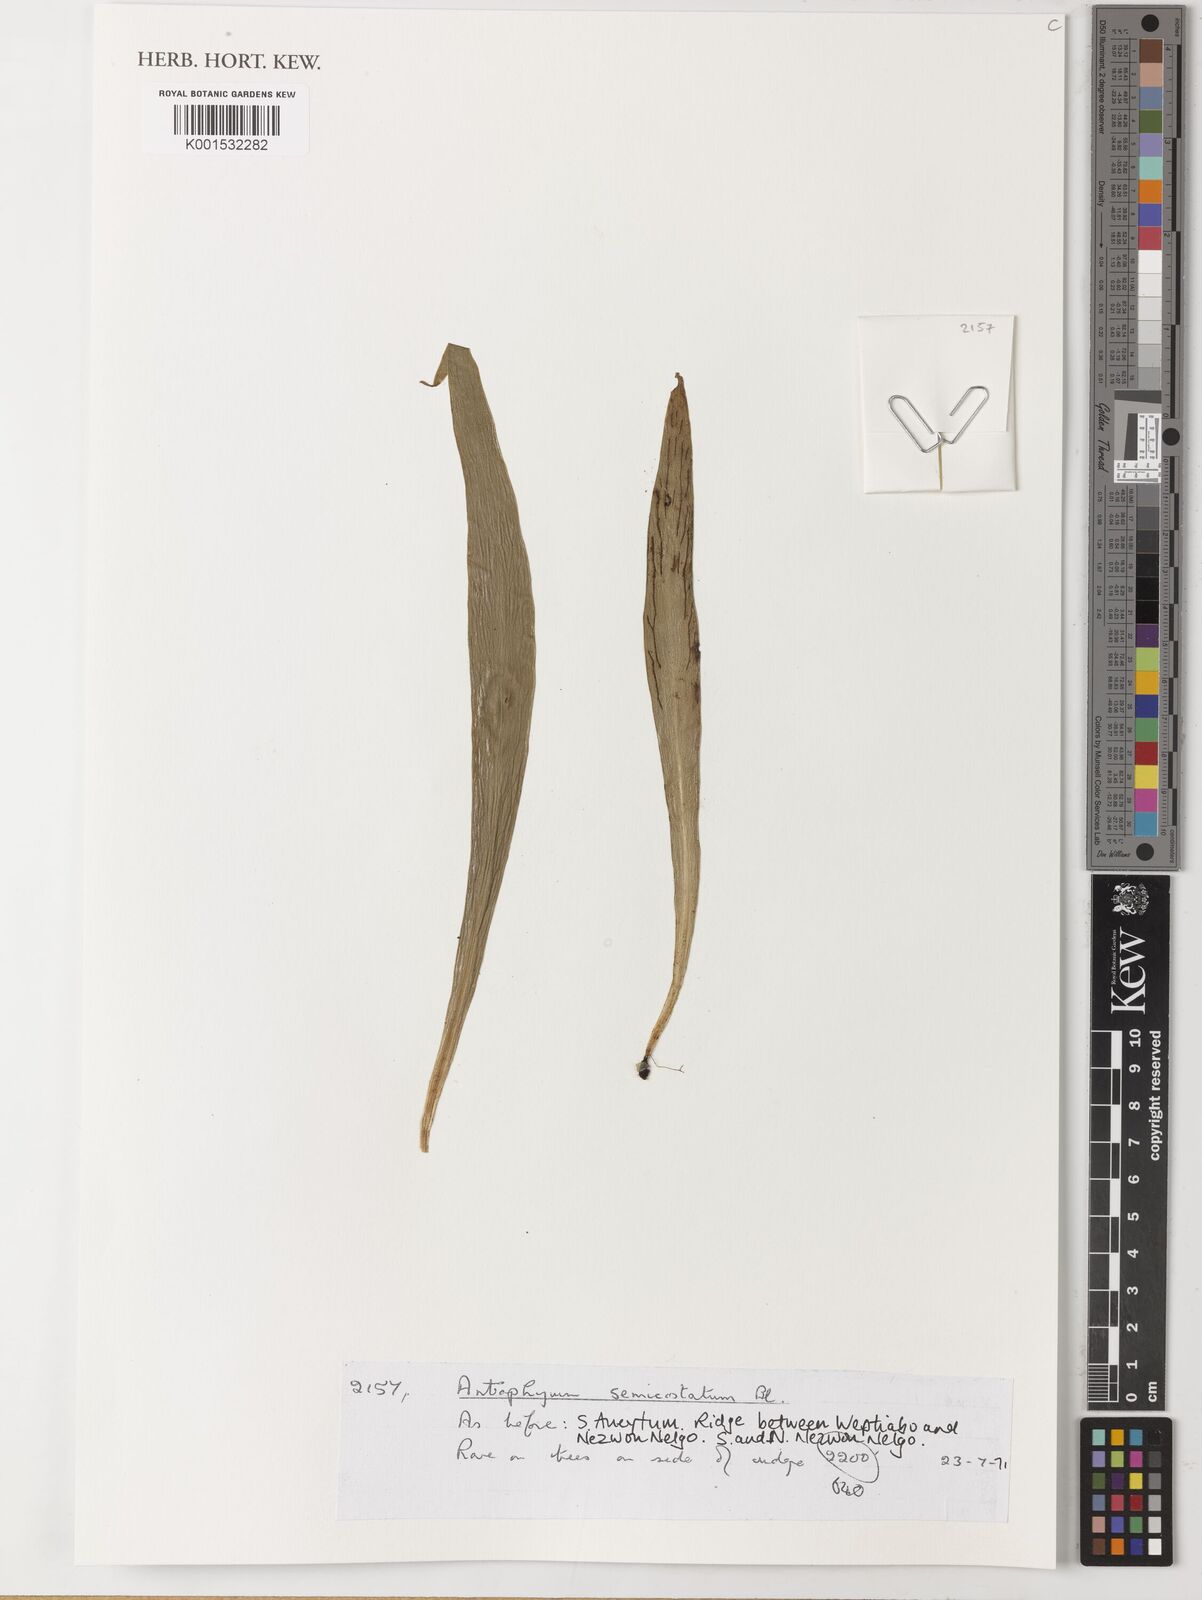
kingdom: Plantae
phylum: Tracheophyta
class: Polypodiopsida
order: Polypodiales
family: Pteridaceae
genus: Antrophyum
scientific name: Antrophyum semicostatum
